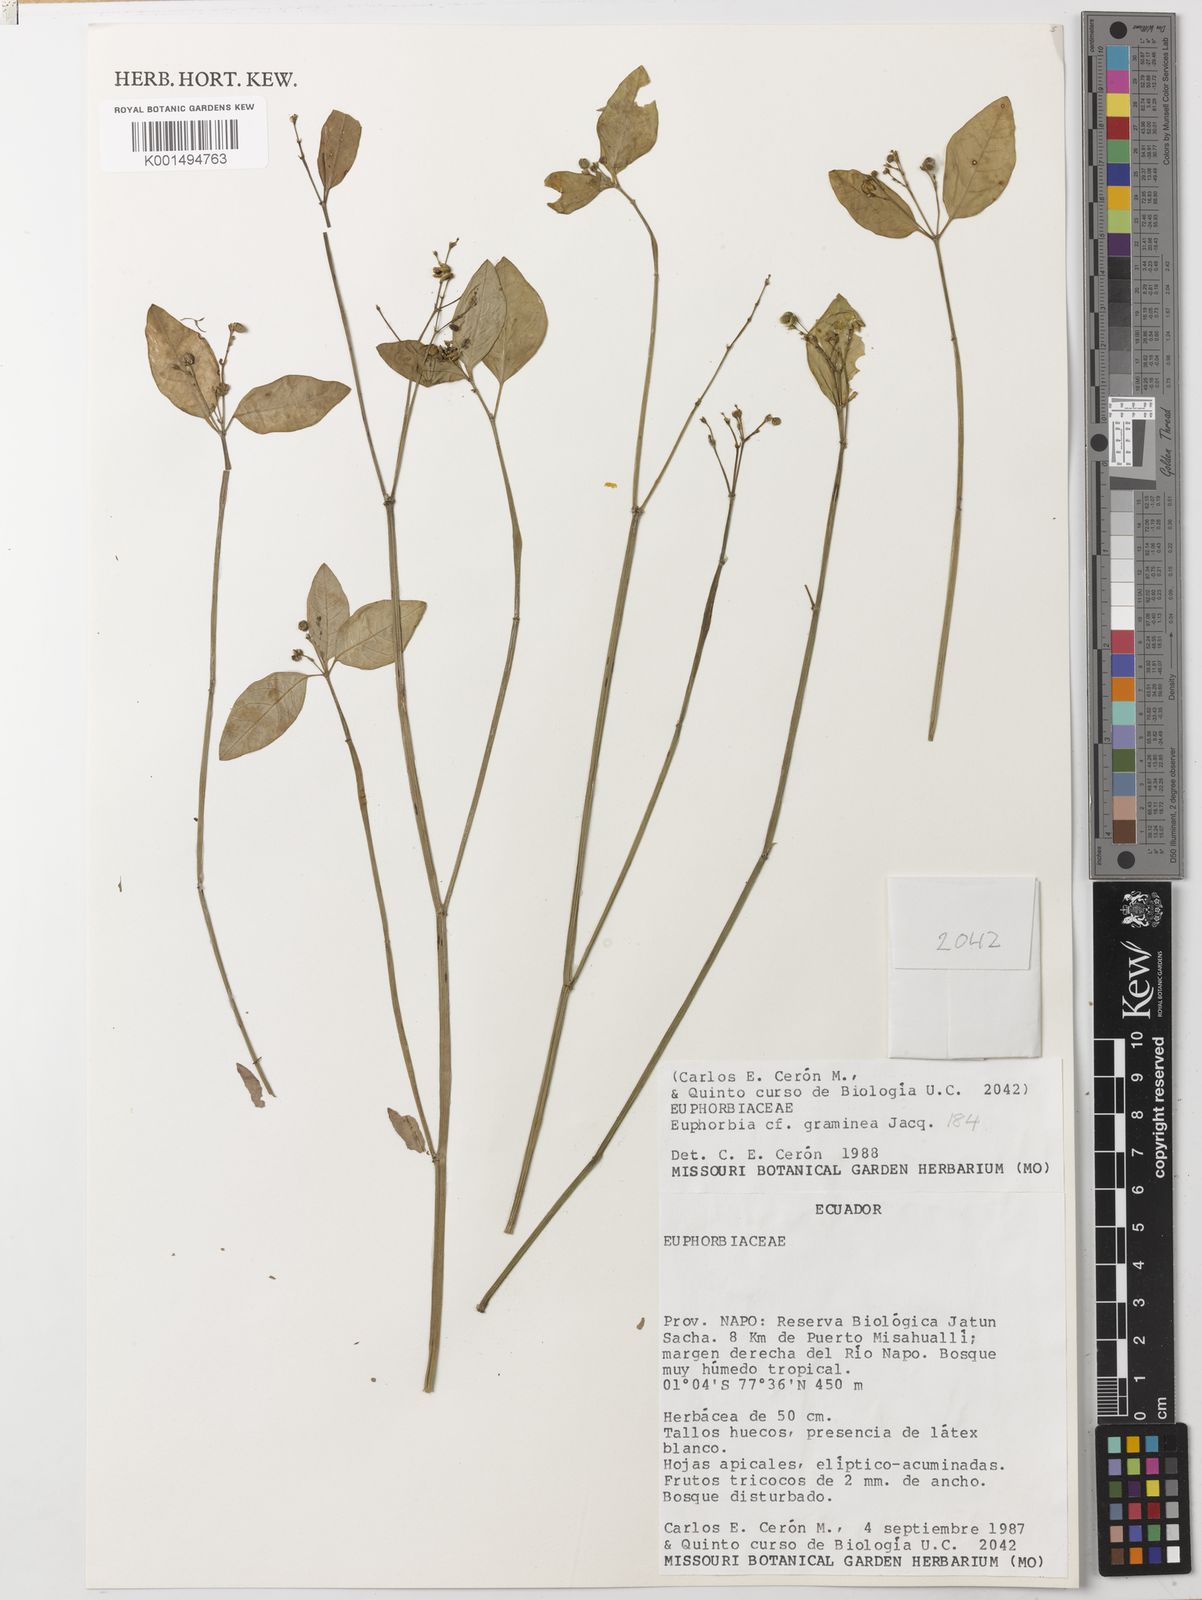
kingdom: Plantae
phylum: Tracheophyta
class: Magnoliopsida
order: Malpighiales
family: Euphorbiaceae
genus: Euphorbia
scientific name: Euphorbia graminea
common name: Grassleaf spurge
